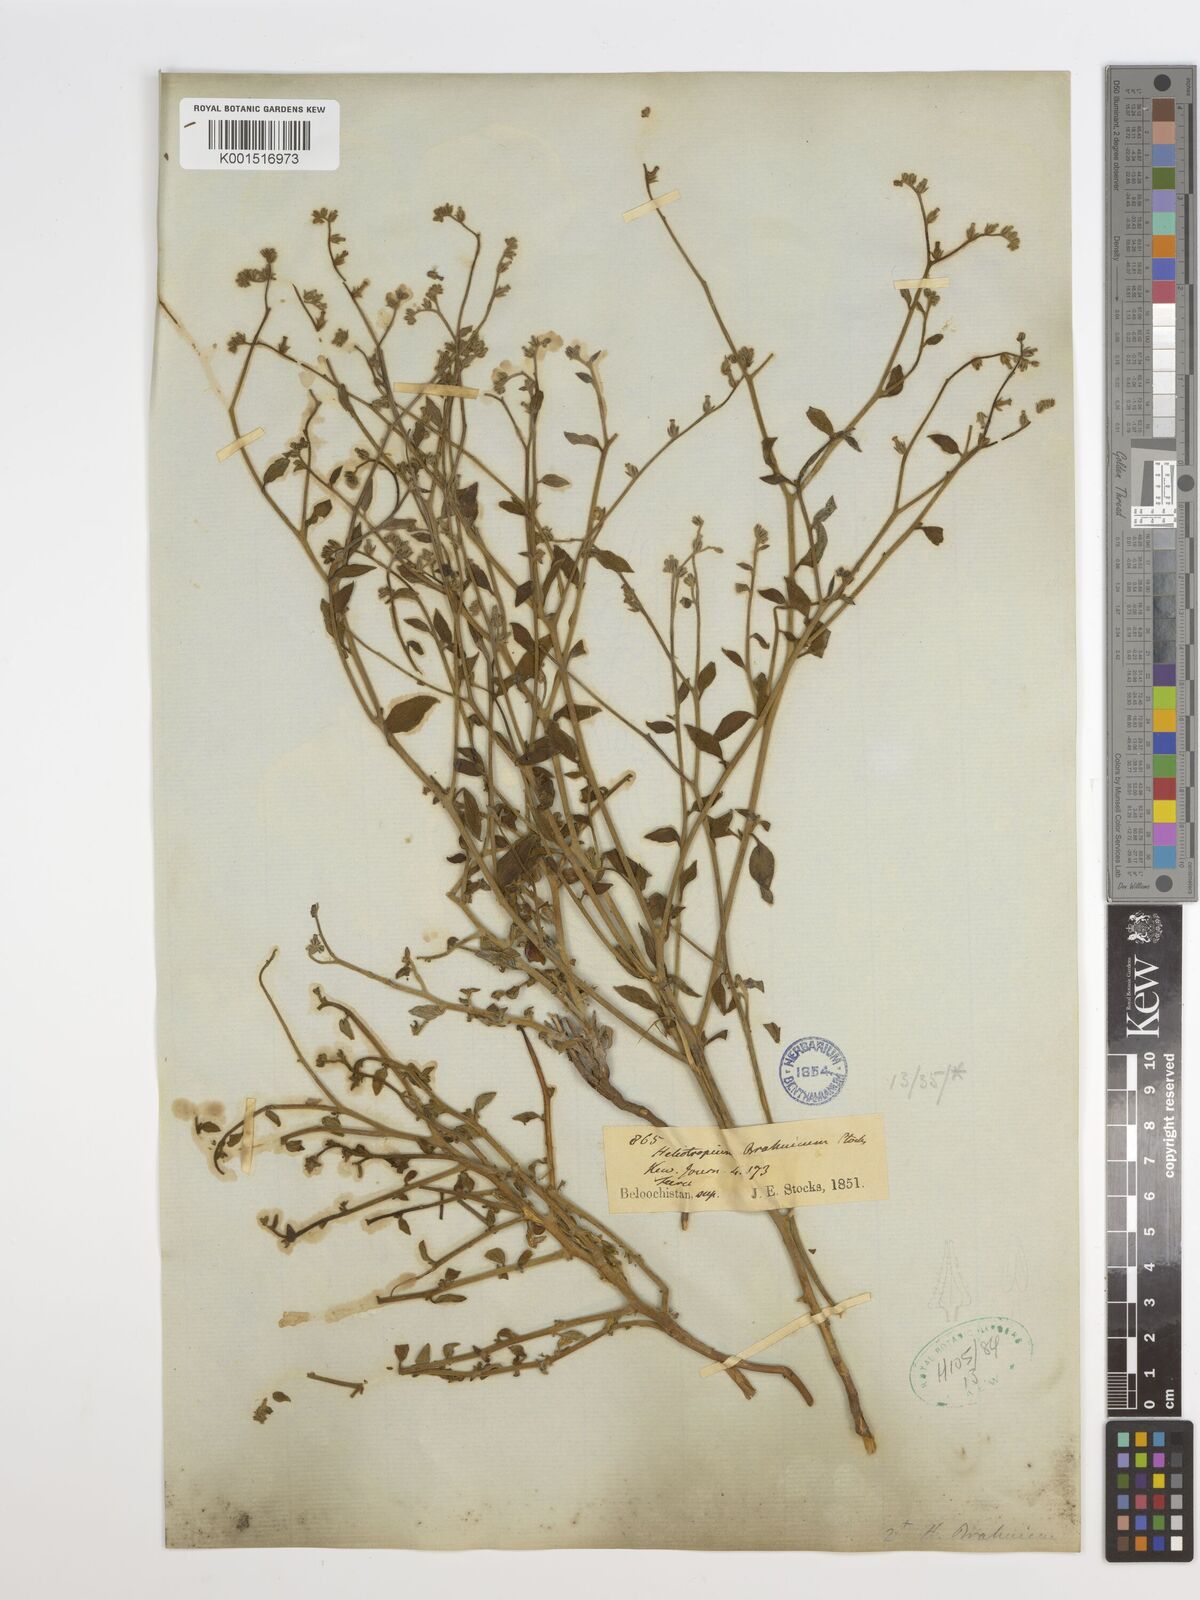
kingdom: Plantae
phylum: Tracheophyta
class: Magnoliopsida
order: Boraginales
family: Heliotropiaceae
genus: Heliotropium
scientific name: Heliotropium dasycarpum
